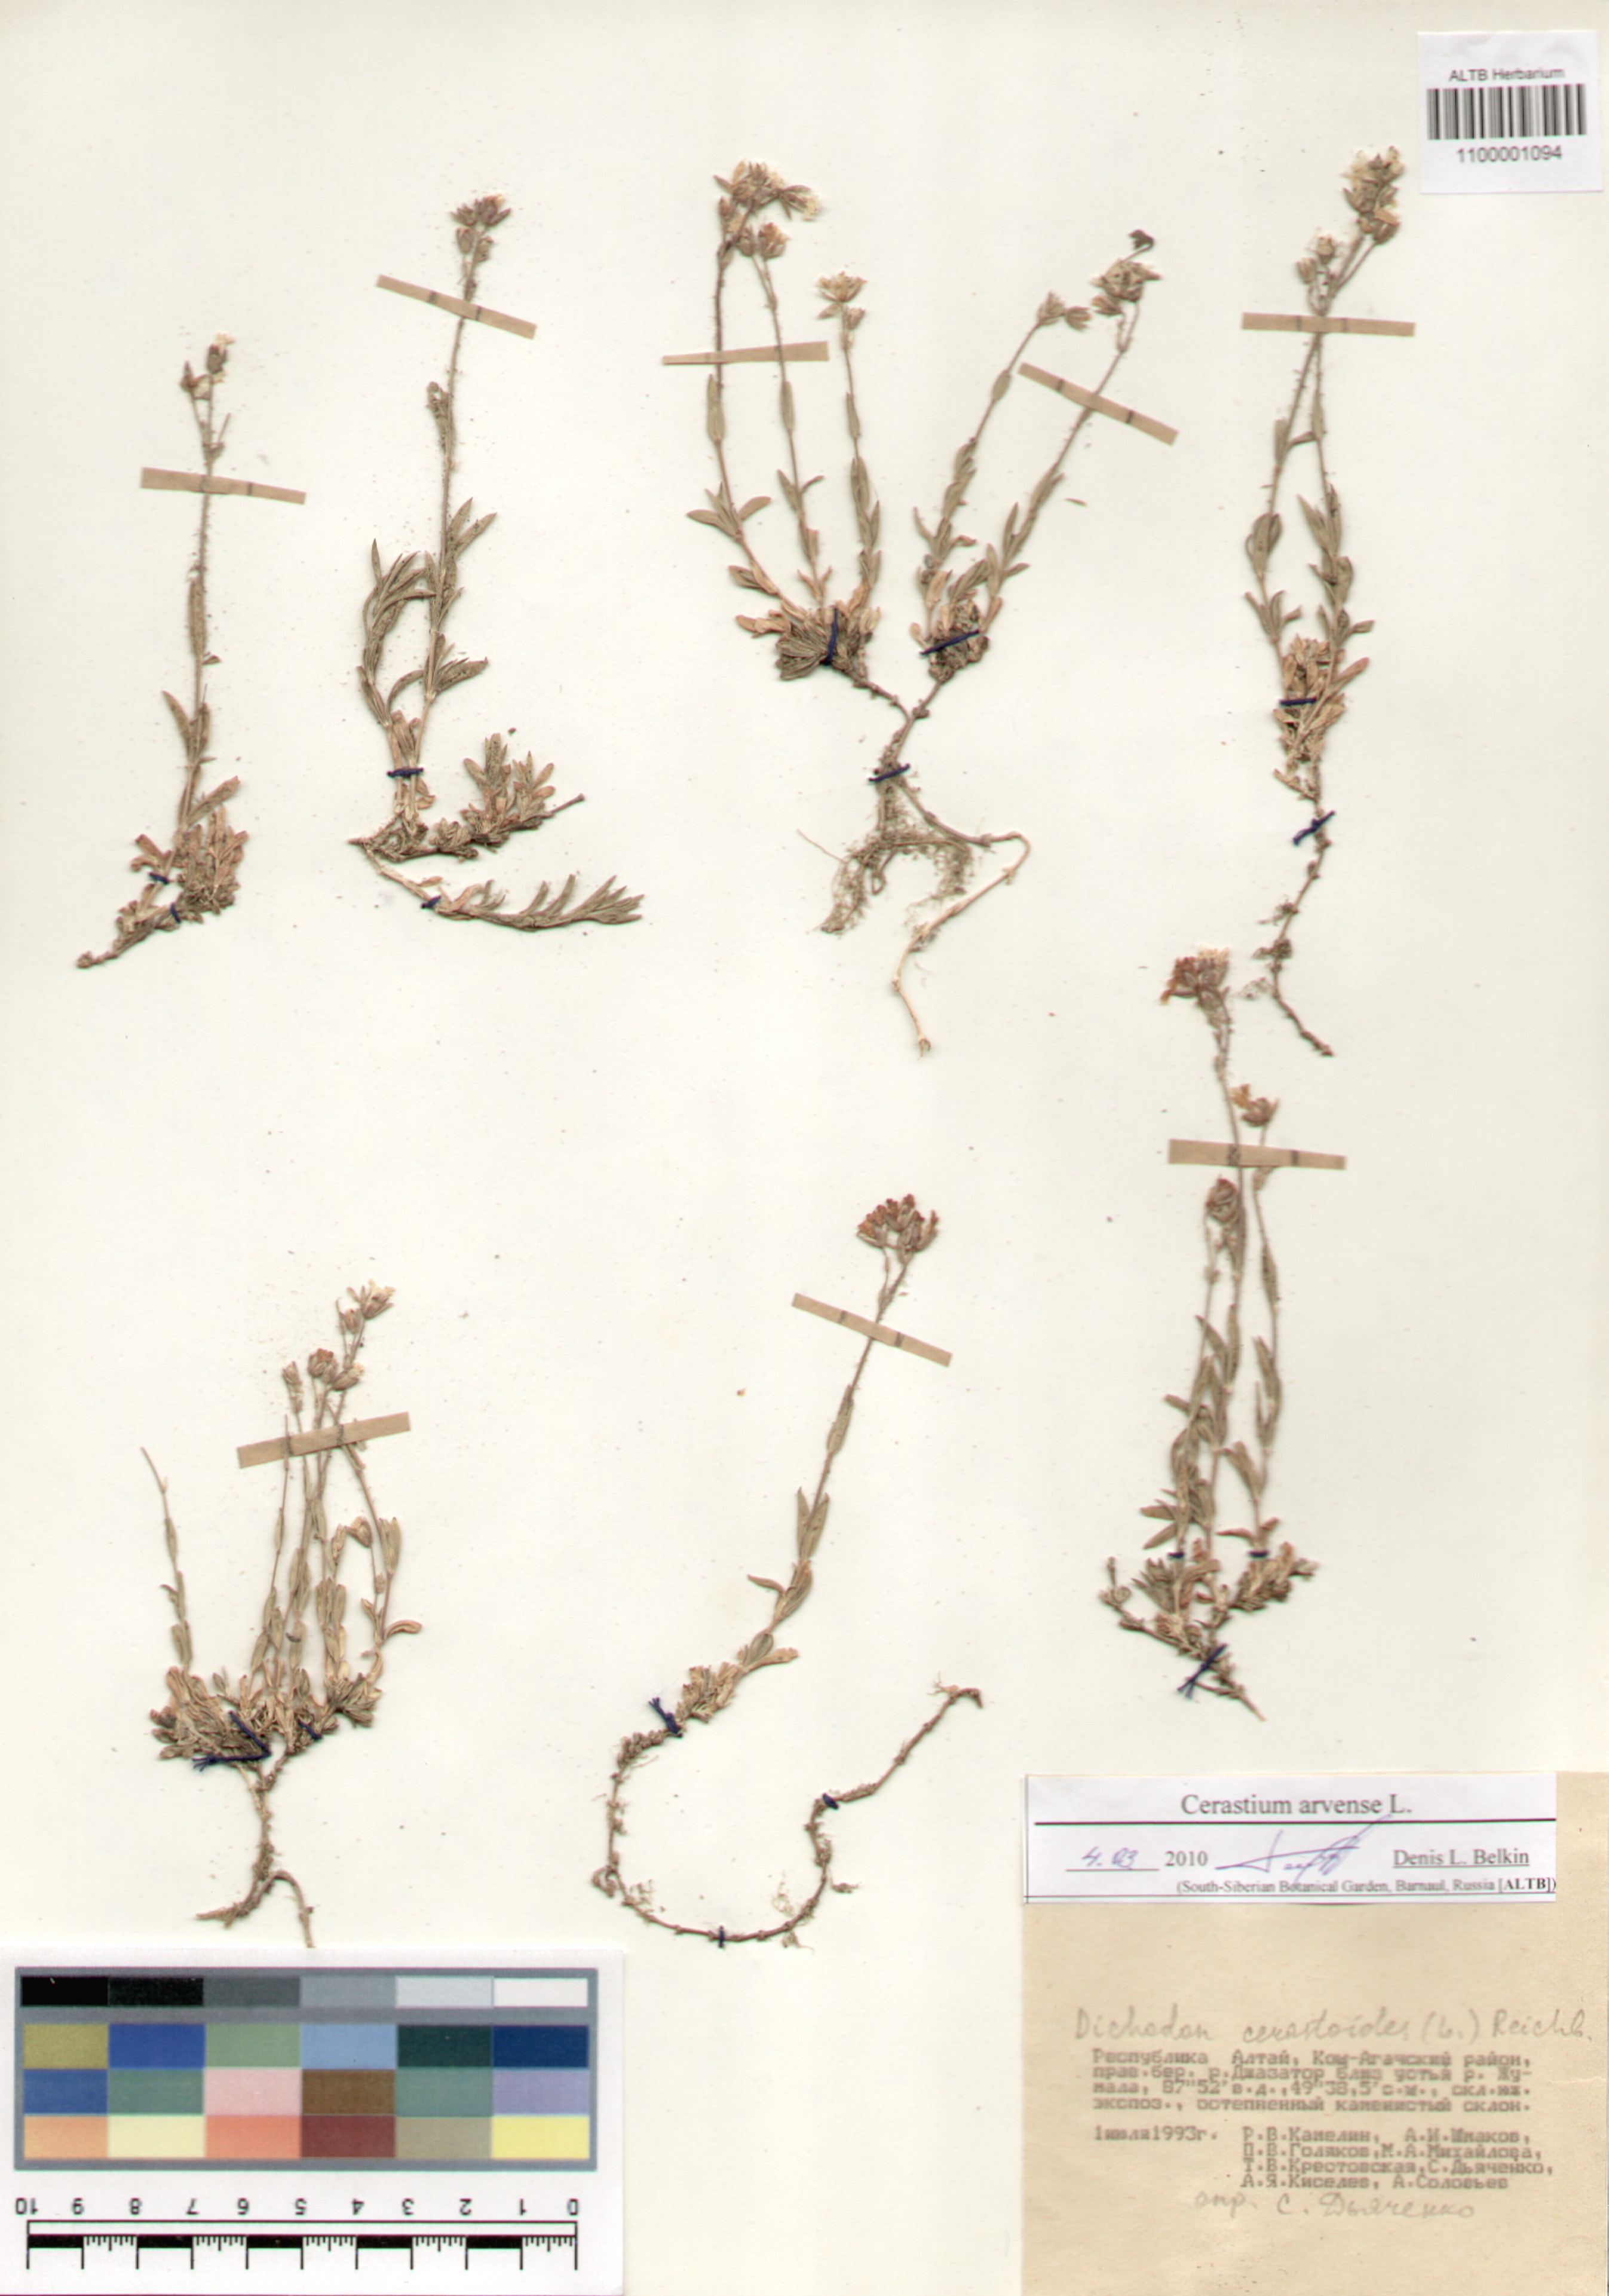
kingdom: Plantae
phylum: Tracheophyta
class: Magnoliopsida
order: Caryophyllales
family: Caryophyllaceae
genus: Cerastium
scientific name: Cerastium arvense
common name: Field mouse-ear
